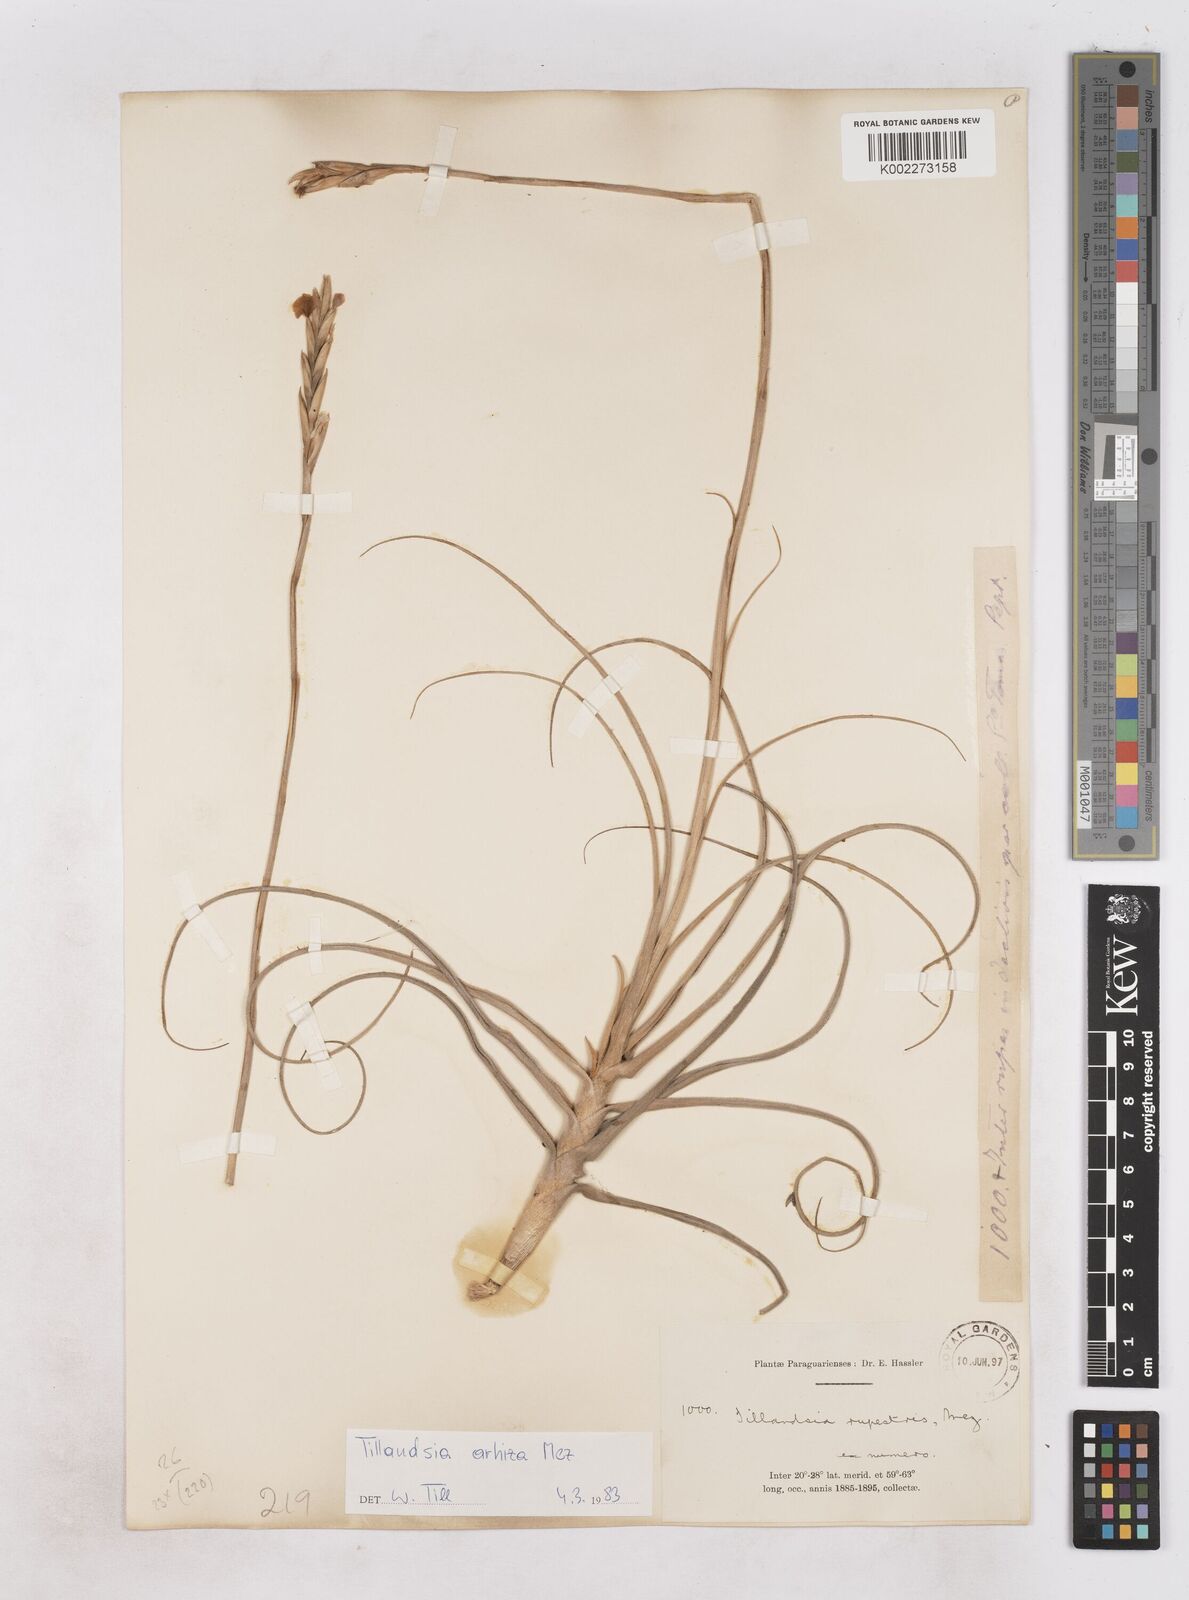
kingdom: Plantae
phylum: Tracheophyta
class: Liliopsida
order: Poales
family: Bromeliaceae
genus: Tillandsia
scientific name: Tillandsia arhiza
